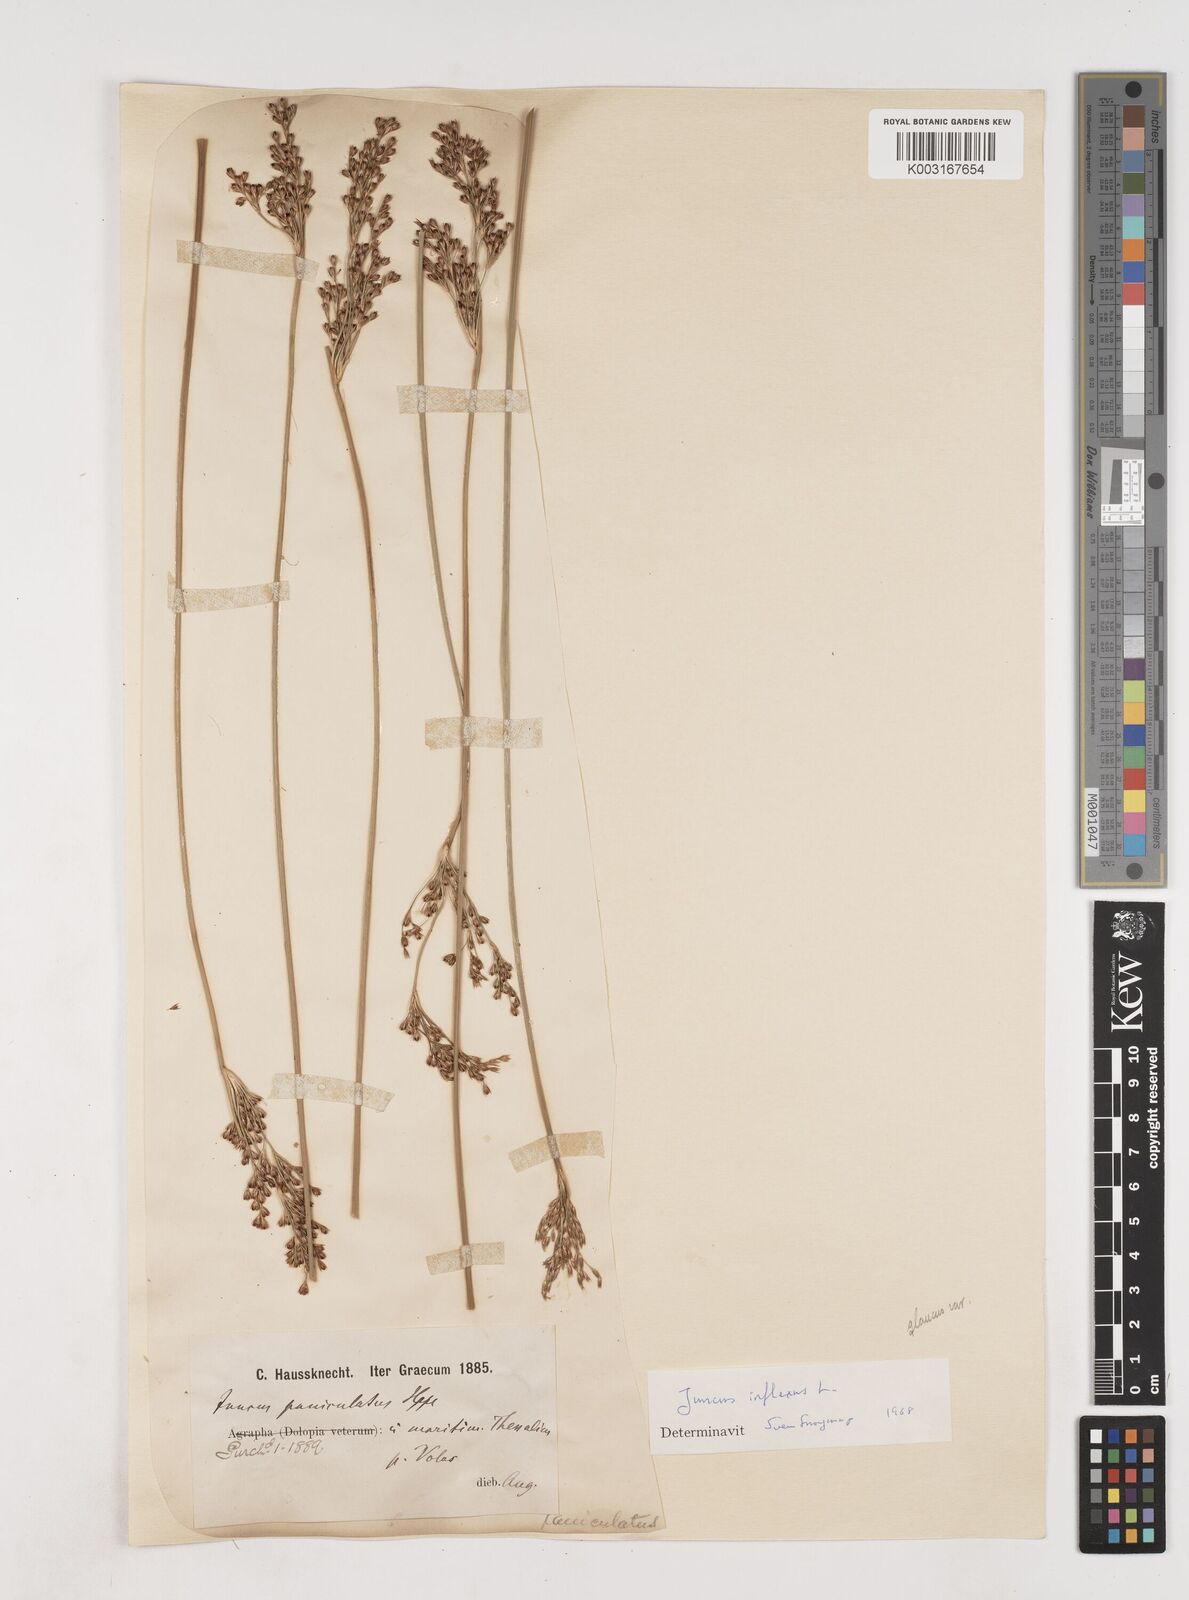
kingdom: Plantae
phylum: Tracheophyta
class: Liliopsida
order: Poales
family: Juncaceae
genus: Juncus
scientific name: Juncus inflexus
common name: Hard rush
